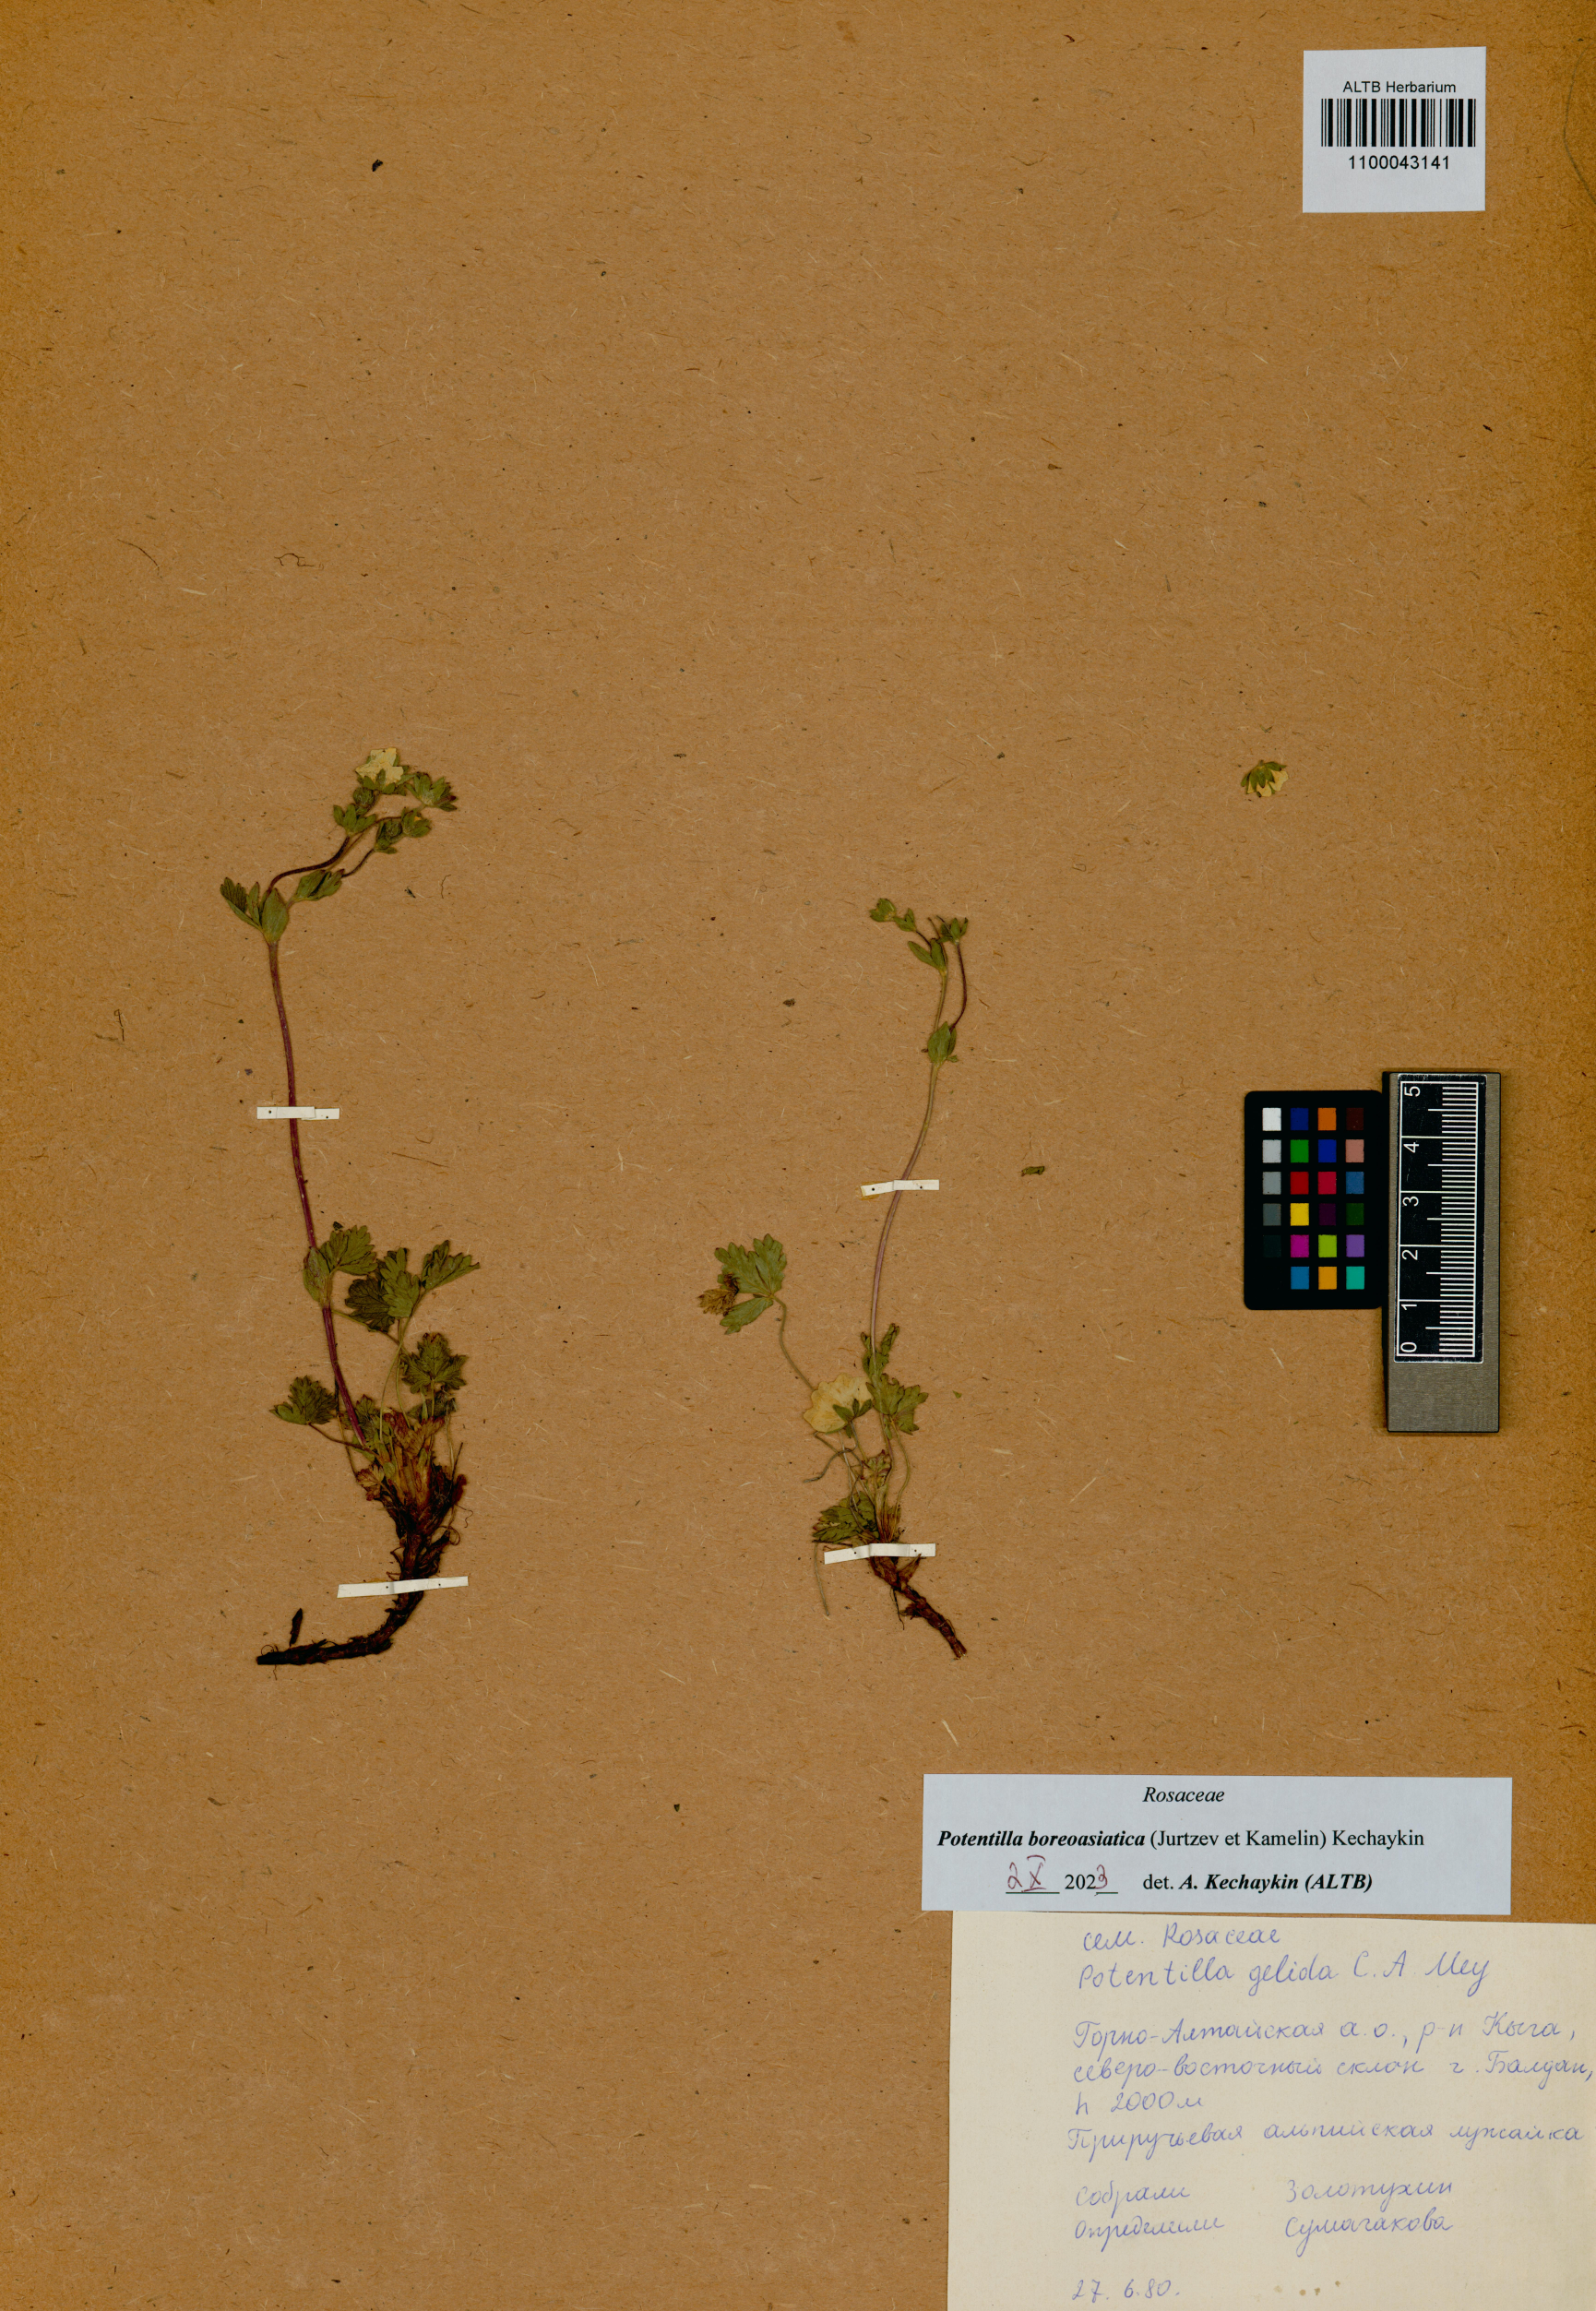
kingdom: Plantae
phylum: Tracheophyta
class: Magnoliopsida
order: Rosales
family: Rosaceae
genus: Potentilla
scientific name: Potentilla
